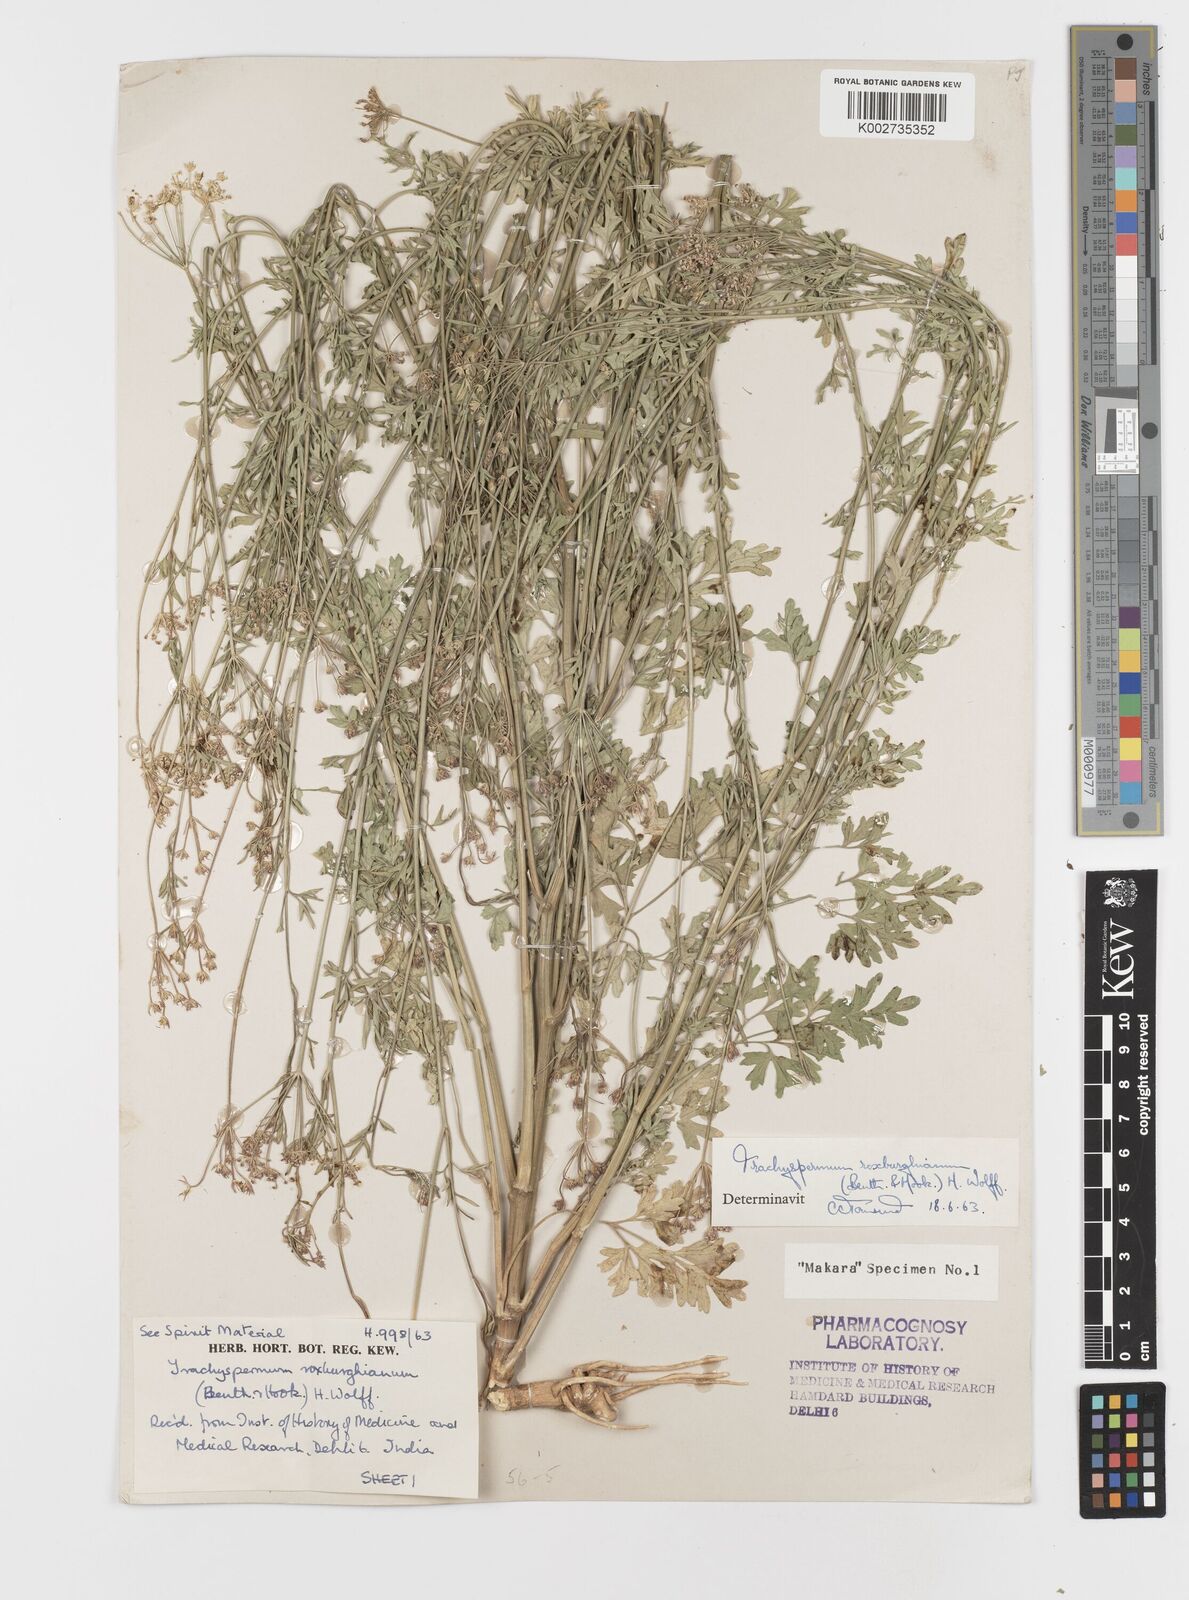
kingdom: Plantae
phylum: Tracheophyta
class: Magnoliopsida
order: Apiales
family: Apiaceae
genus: Psammogeton
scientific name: Psammogeton involucratum
